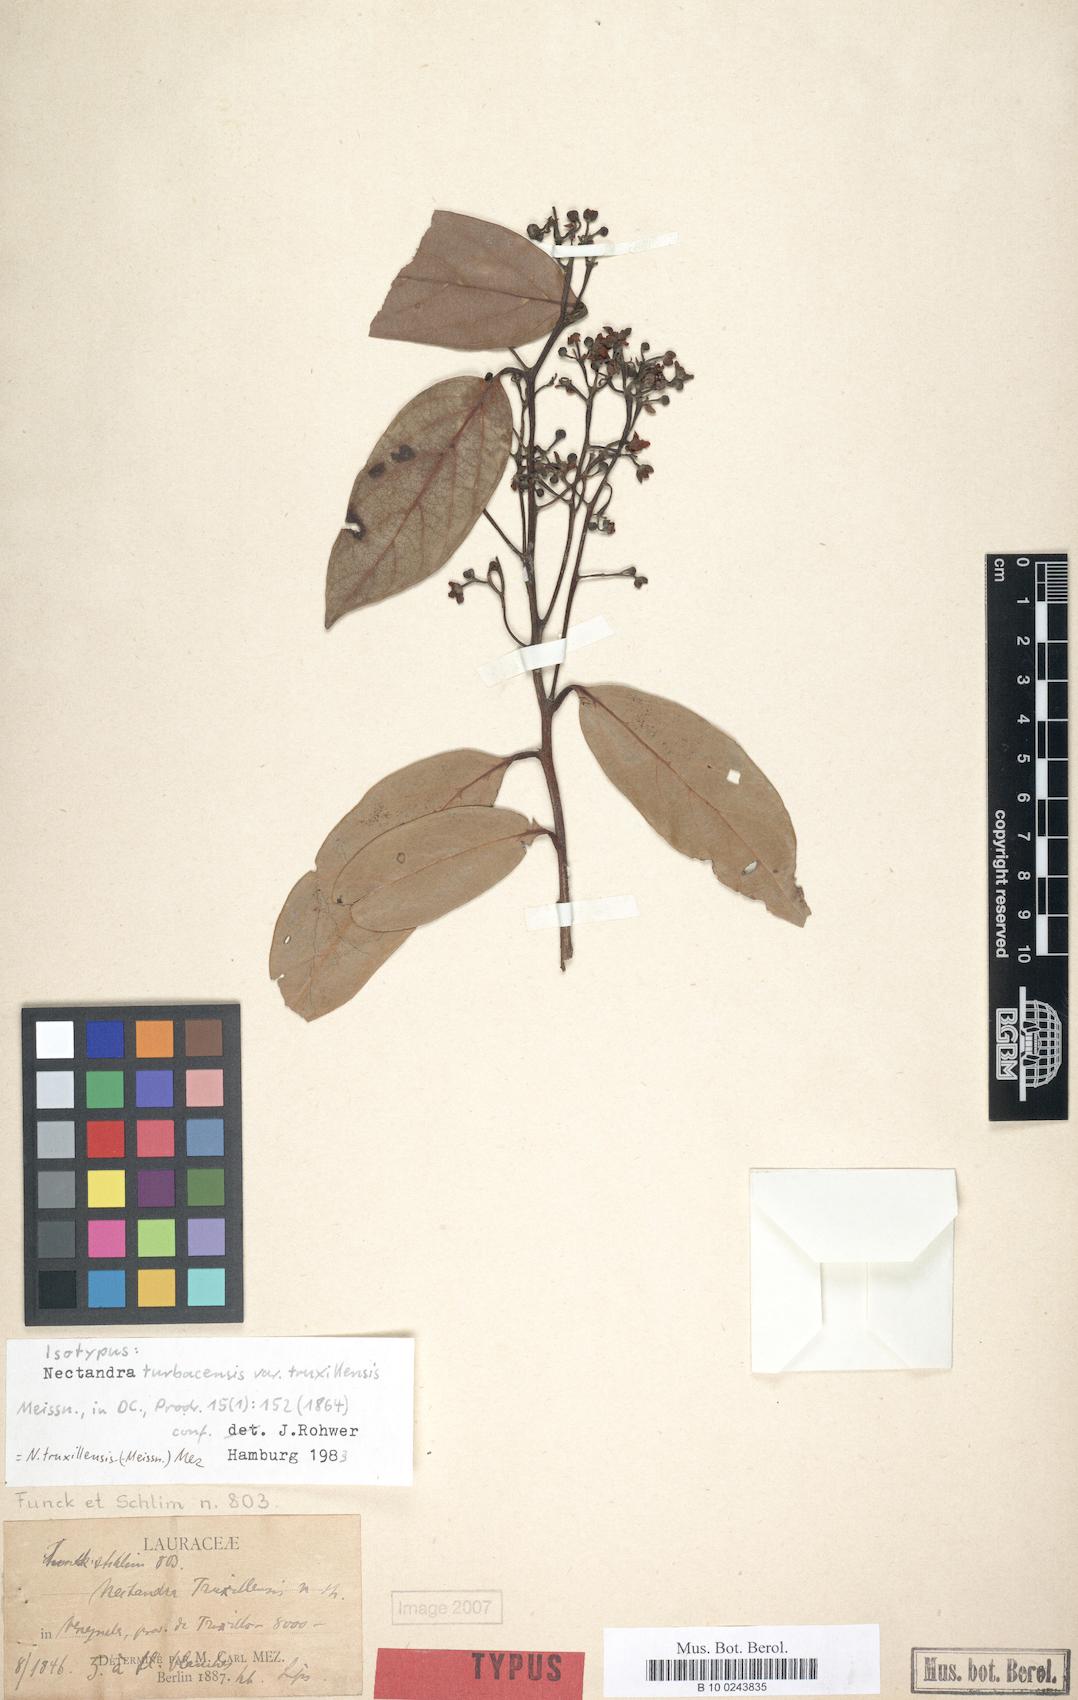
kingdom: Plantae
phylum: Tracheophyta
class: Magnoliopsida
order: Laurales
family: Lauraceae
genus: Nectandra
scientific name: Nectandra truxillensis
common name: Laurel mapurito
